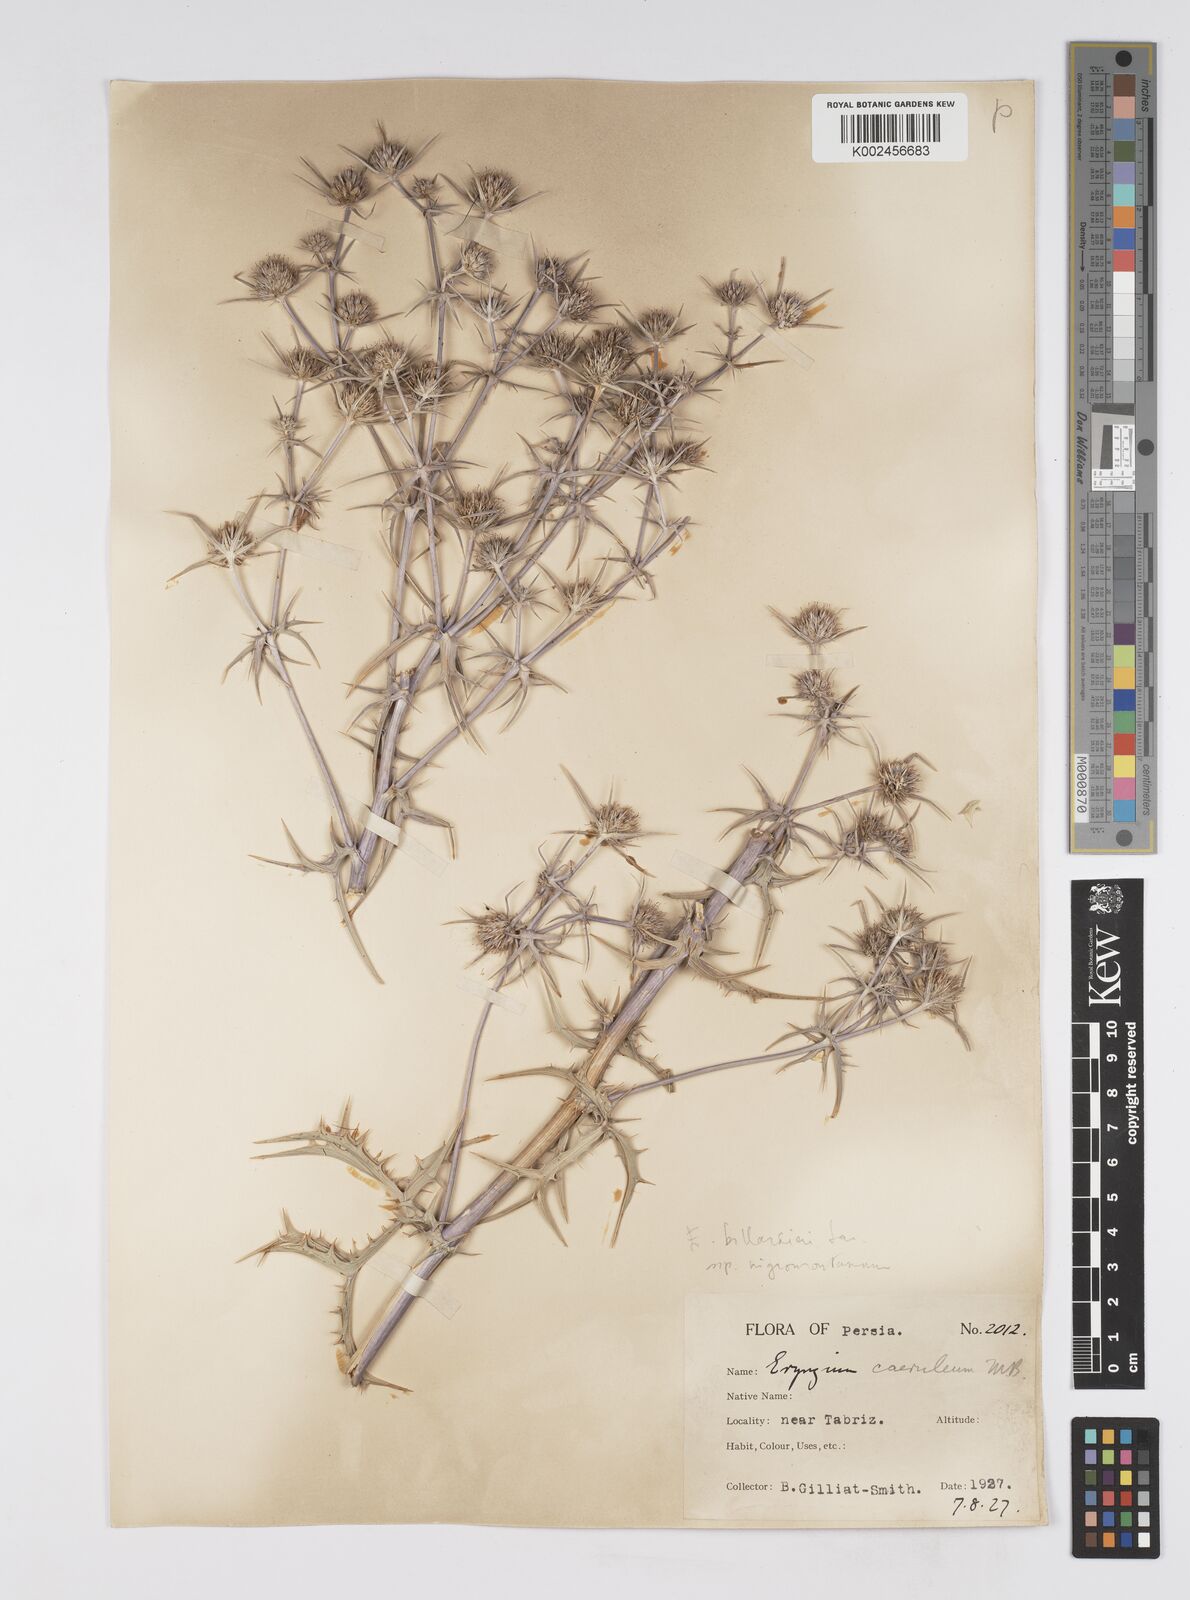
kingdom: Plantae
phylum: Tracheophyta
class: Magnoliopsida
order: Apiales
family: Apiaceae
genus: Eryngium
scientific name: Eryngium billardierei
